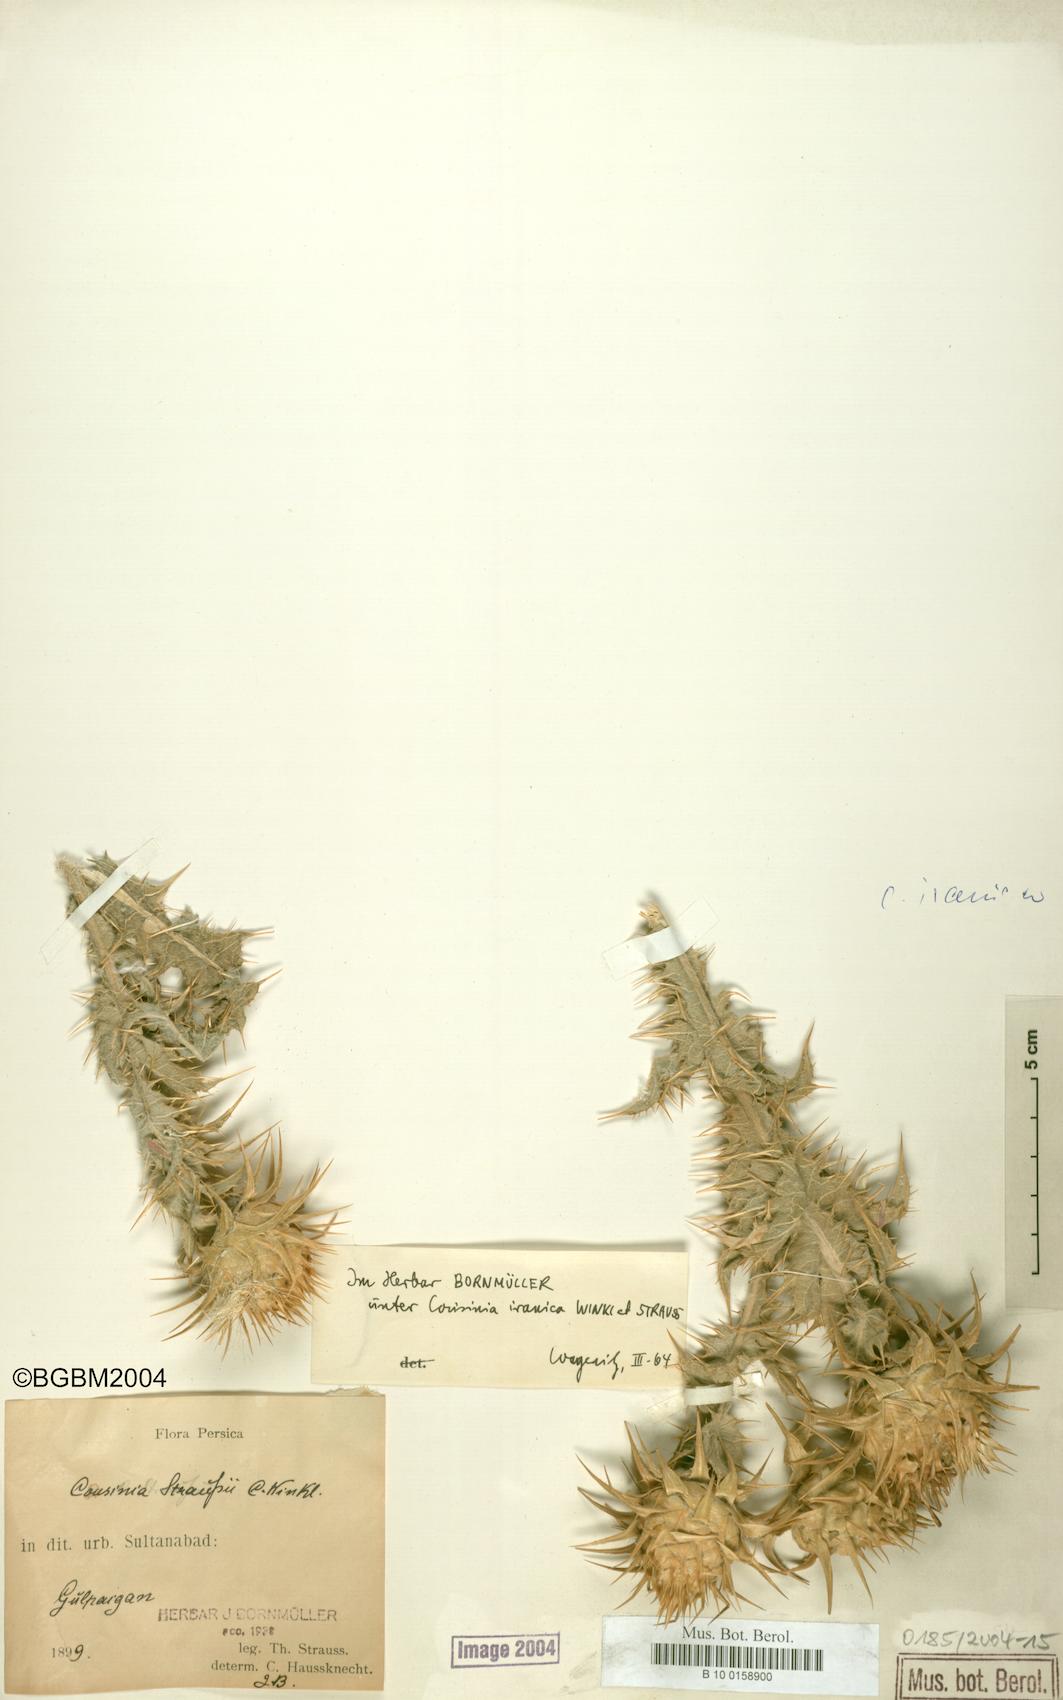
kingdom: Plantae
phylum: Tracheophyta
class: Magnoliopsida
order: Asterales
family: Asteraceae
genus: Cousinia
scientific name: Cousinia sagittata
